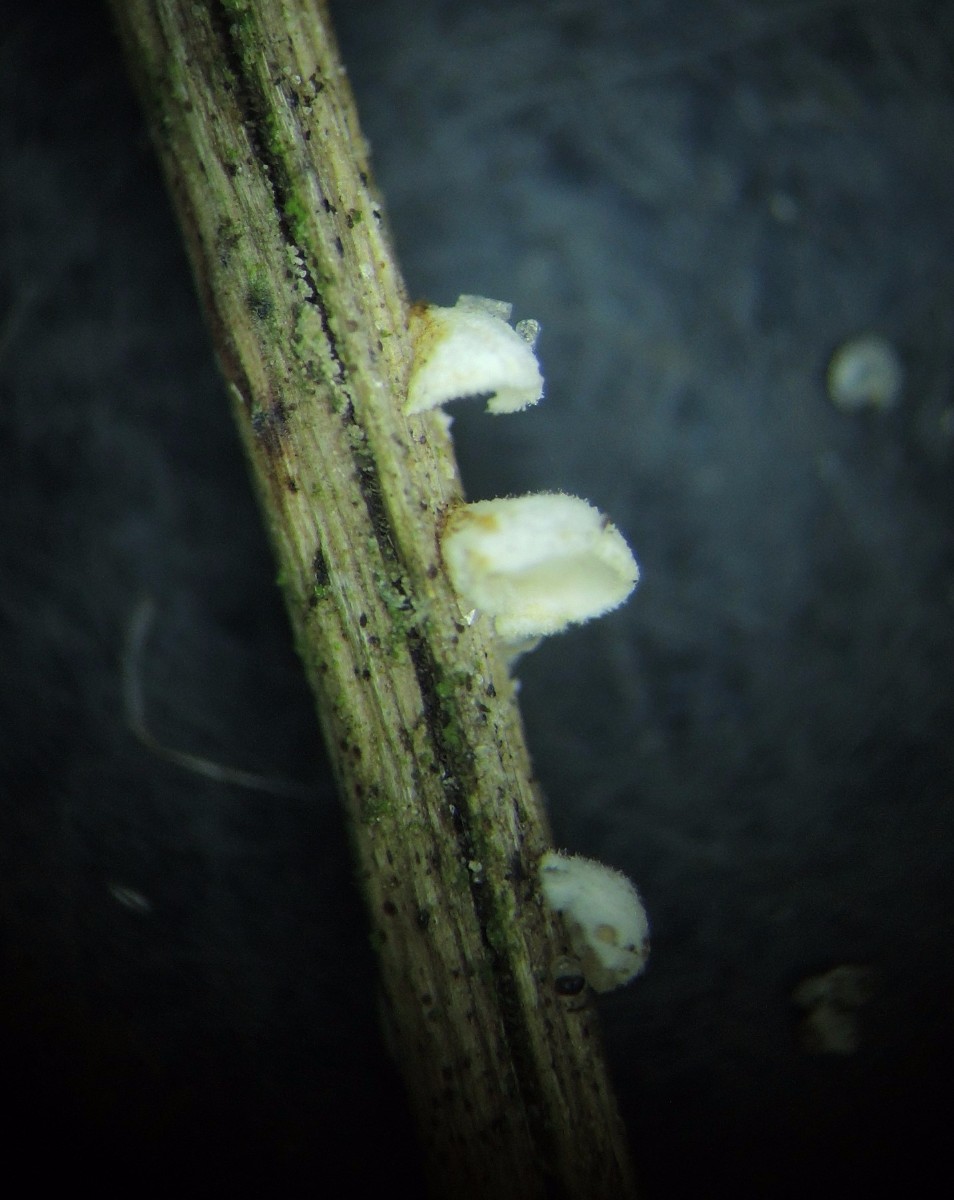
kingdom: Fungi
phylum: Basidiomycota
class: Agaricomycetes
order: Agaricales
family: Tricholomataceae
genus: Cellypha
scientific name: Cellypha goldbachii
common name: dråbeskål
